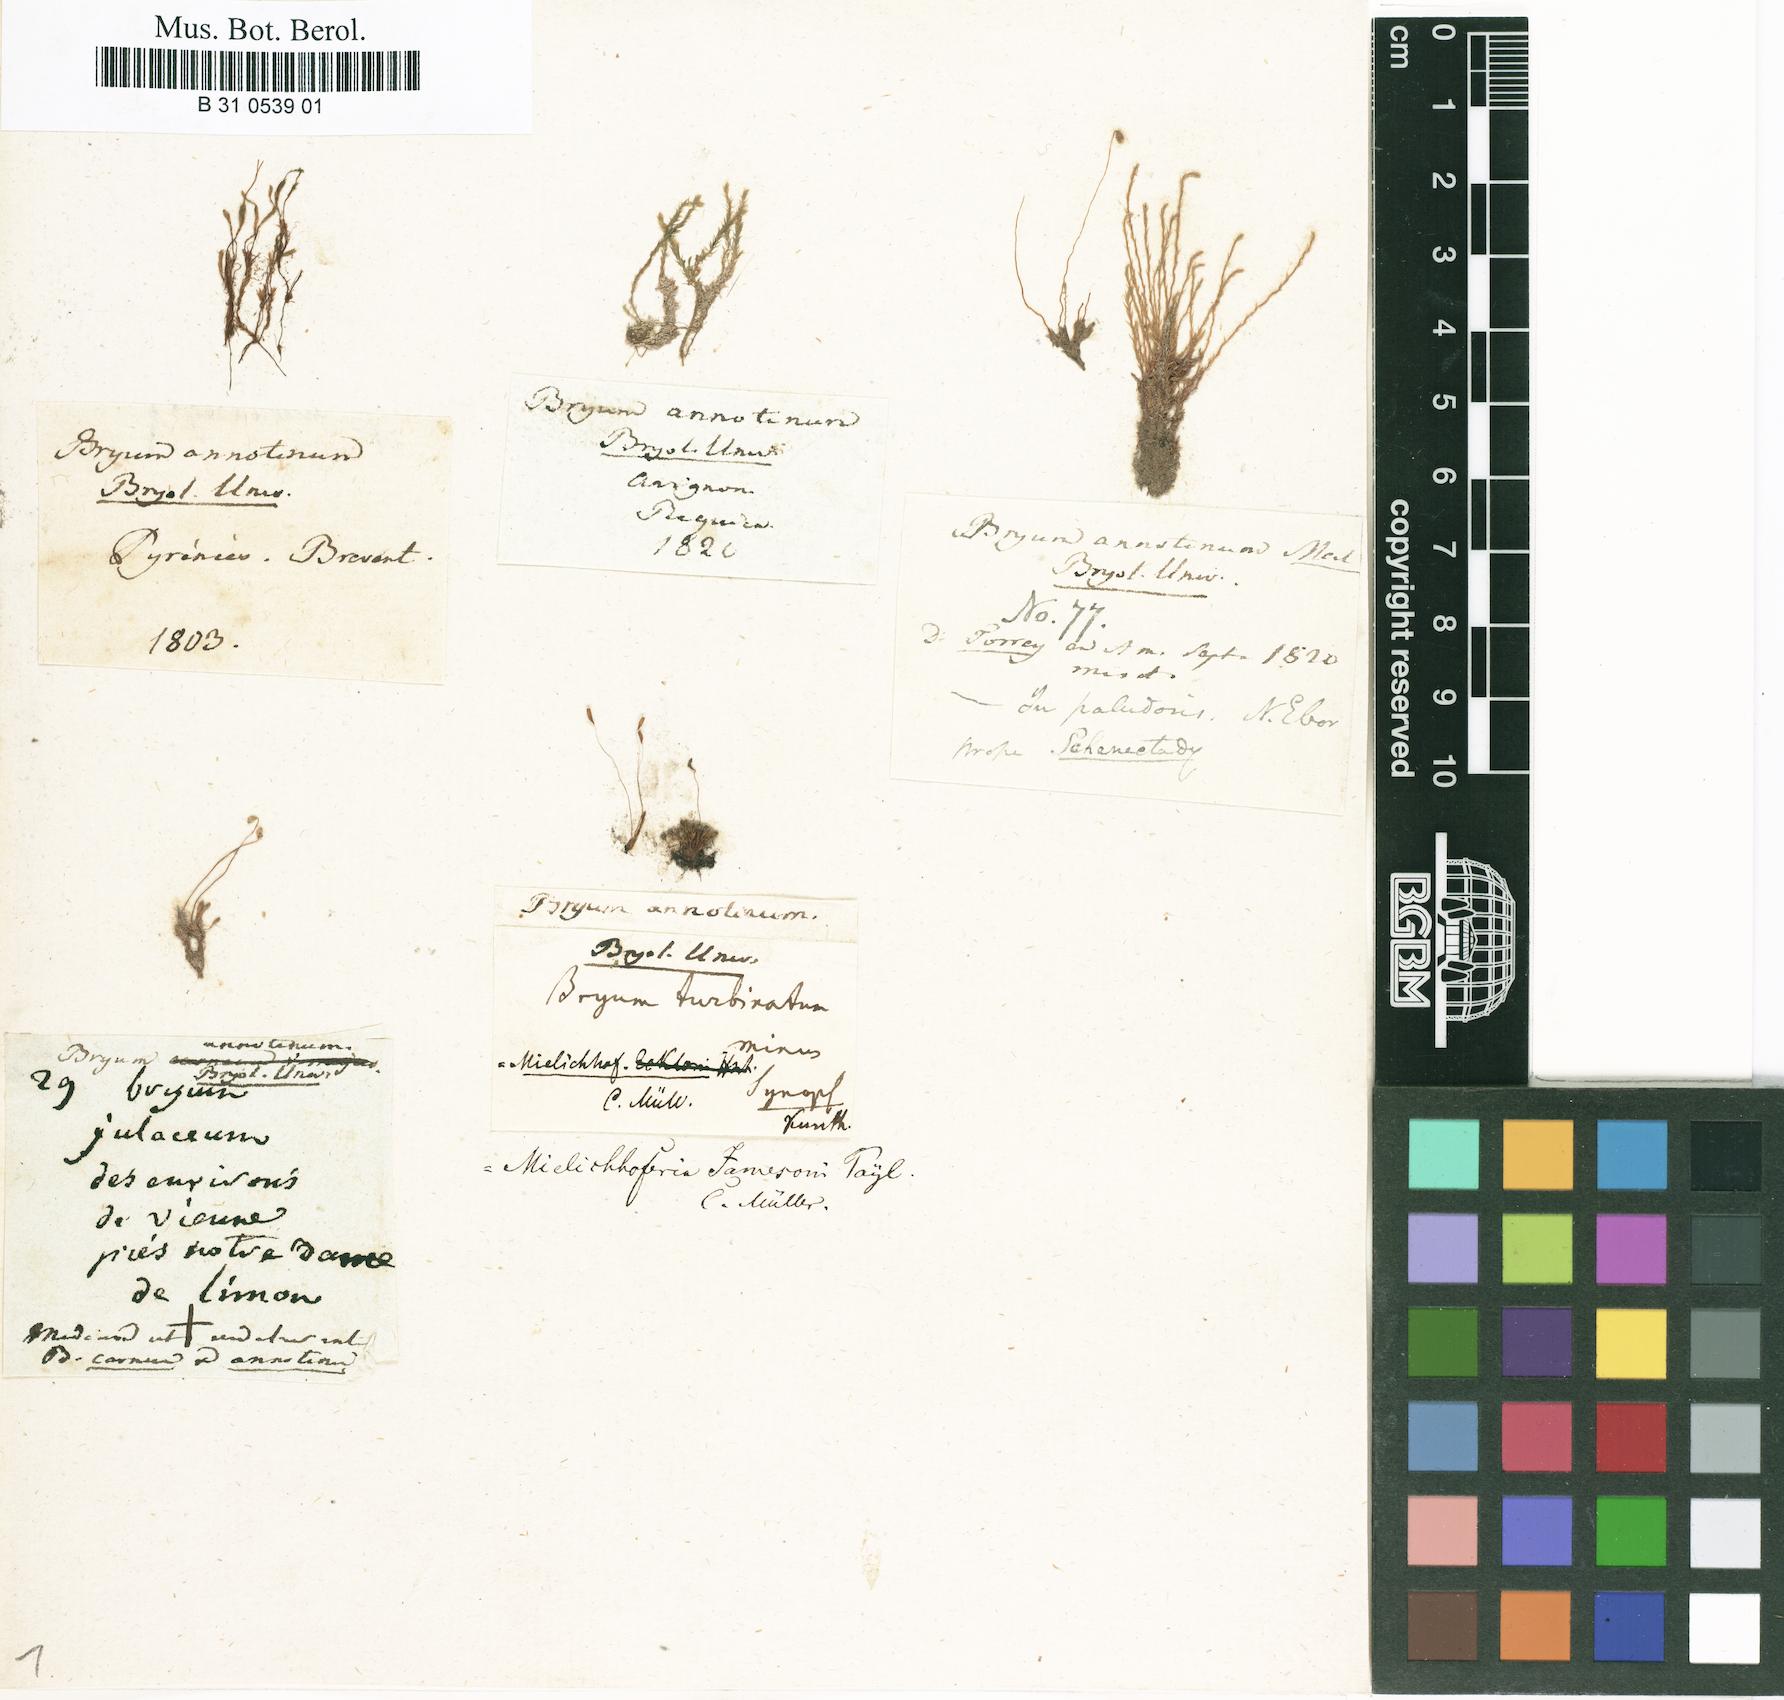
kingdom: Plantae
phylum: Bryophyta
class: Bryopsida
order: Bryales
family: Mniaceae
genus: Pohlia
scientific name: Pohlia annotina
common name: Pale-fruited nodding moss
